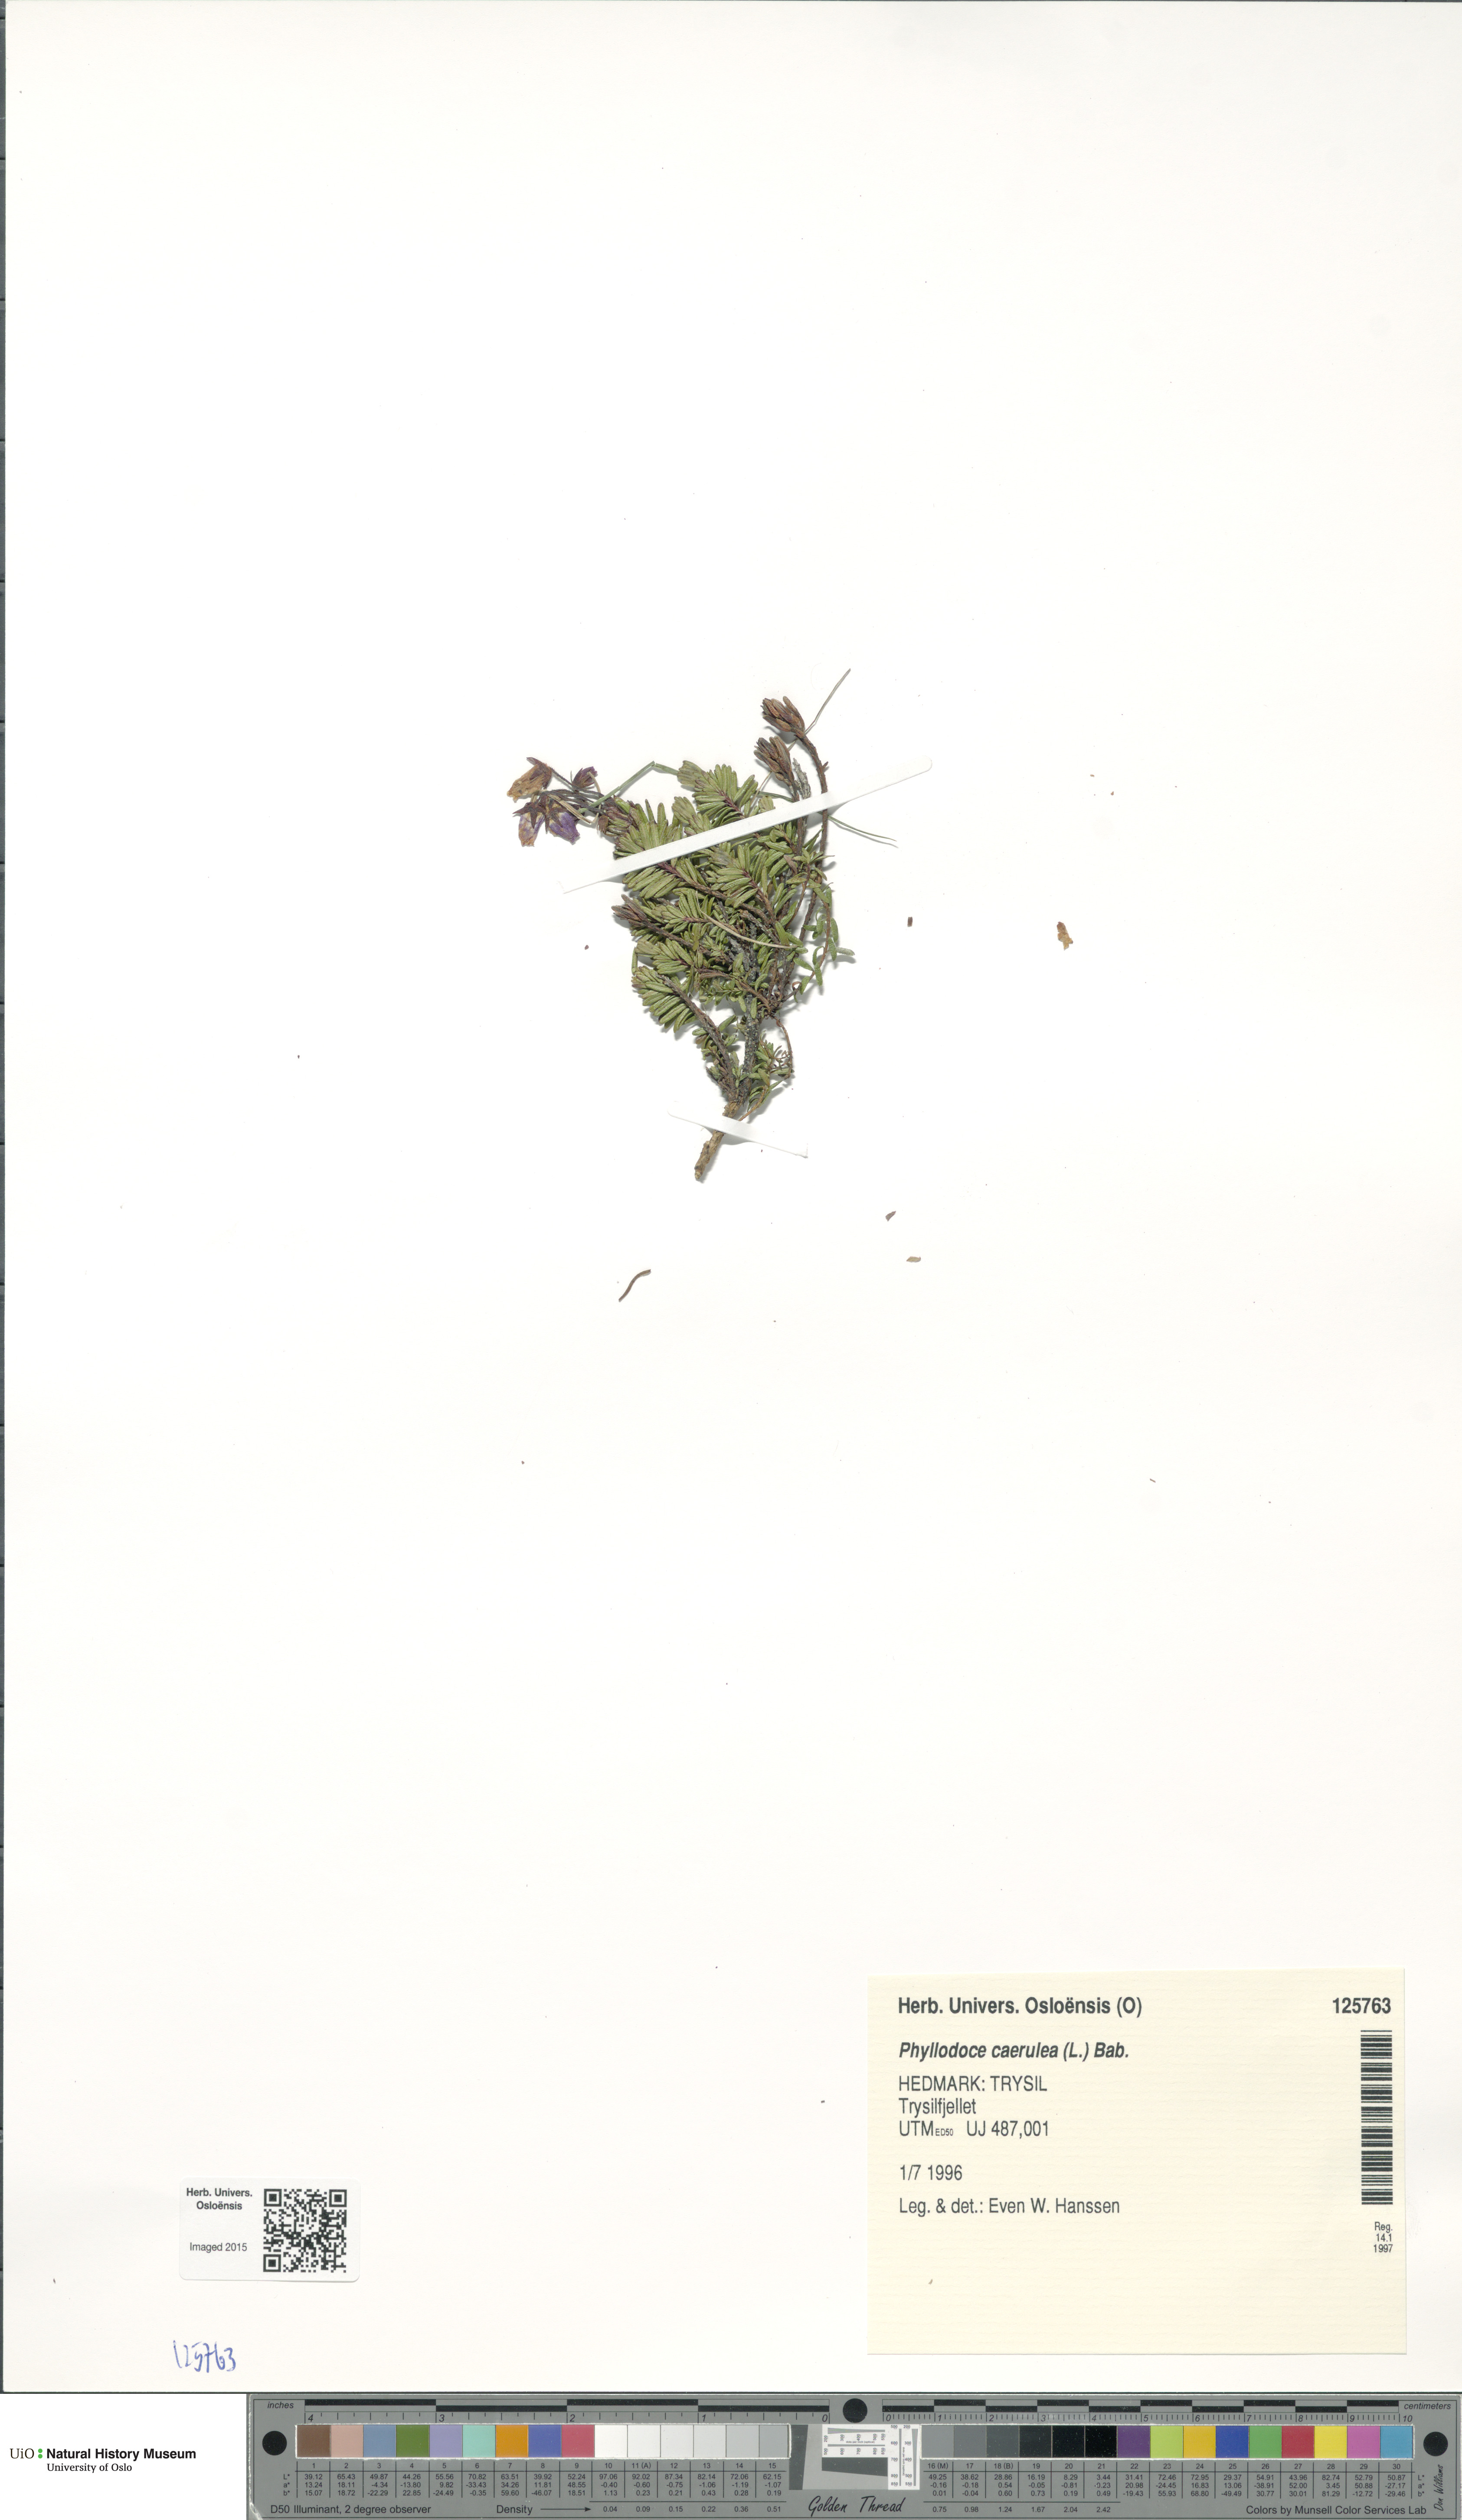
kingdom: Plantae
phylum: Tracheophyta
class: Magnoliopsida
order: Ericales
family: Ericaceae
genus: Phyllodoce
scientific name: Phyllodoce caerulea
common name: Blue heath
